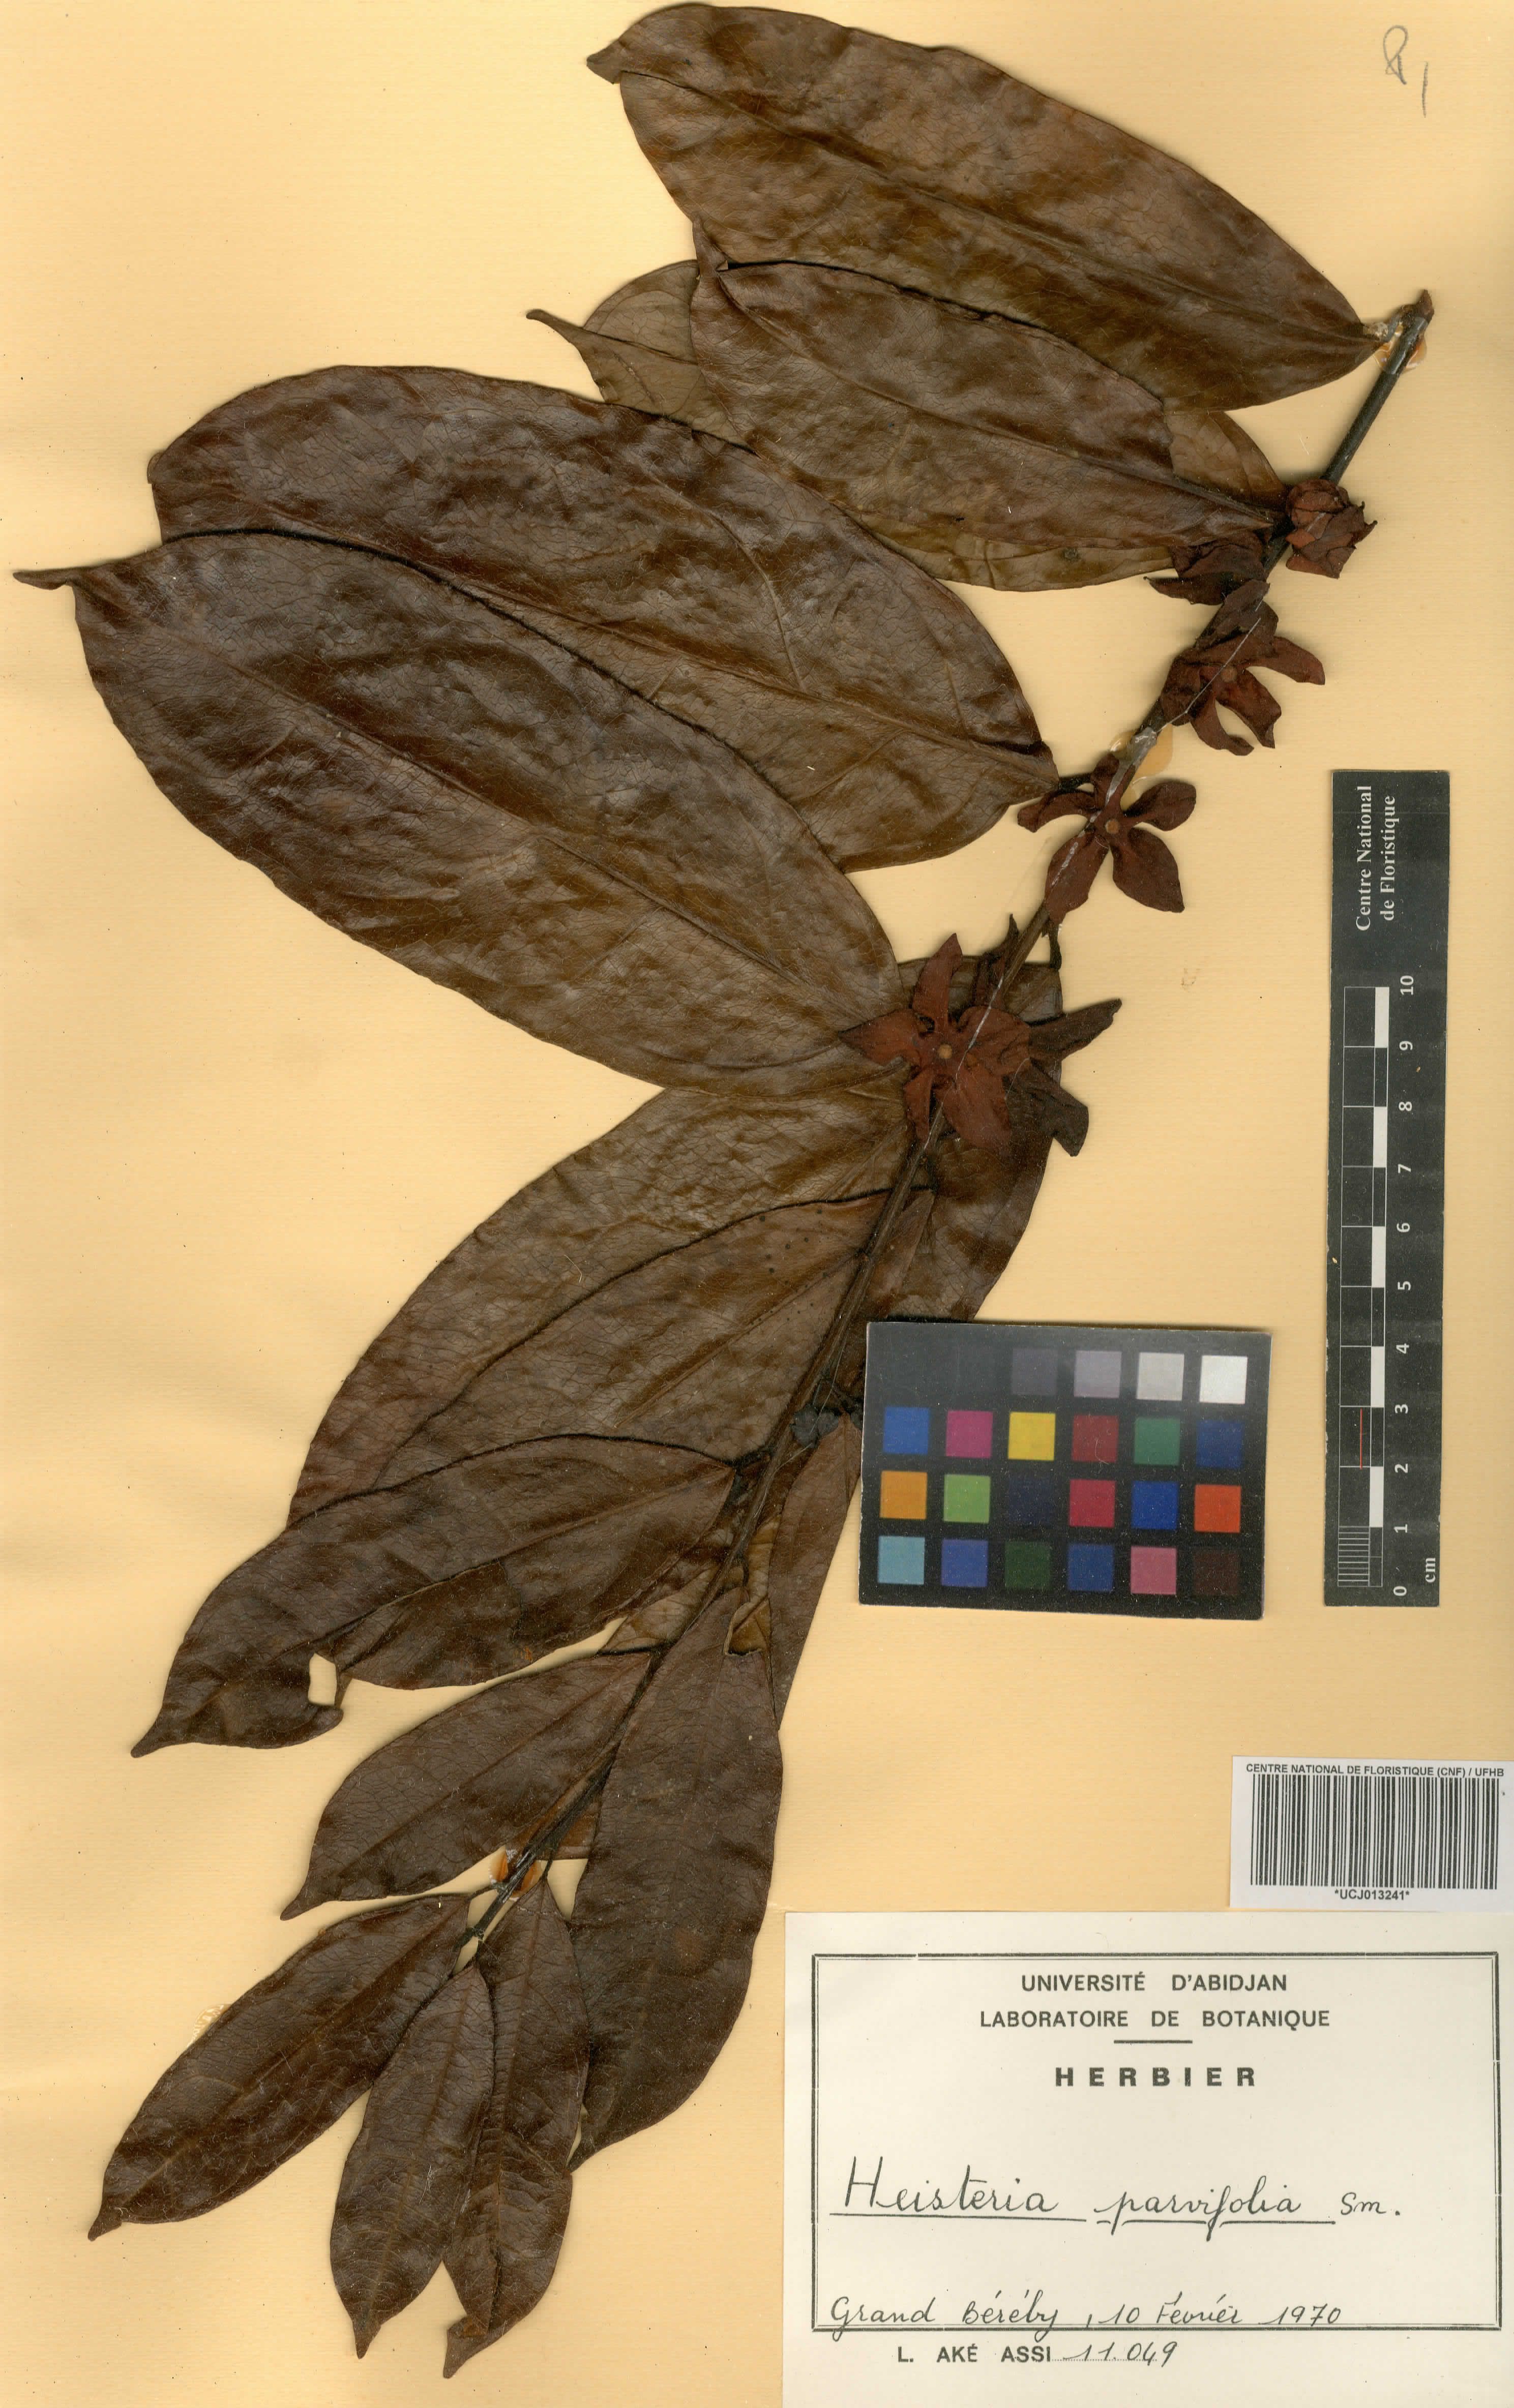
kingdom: Plantae
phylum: Tracheophyta
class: Magnoliopsida
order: Santalales
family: Erythropalaceae
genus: Heisteria
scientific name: Heisteria parvifolia
